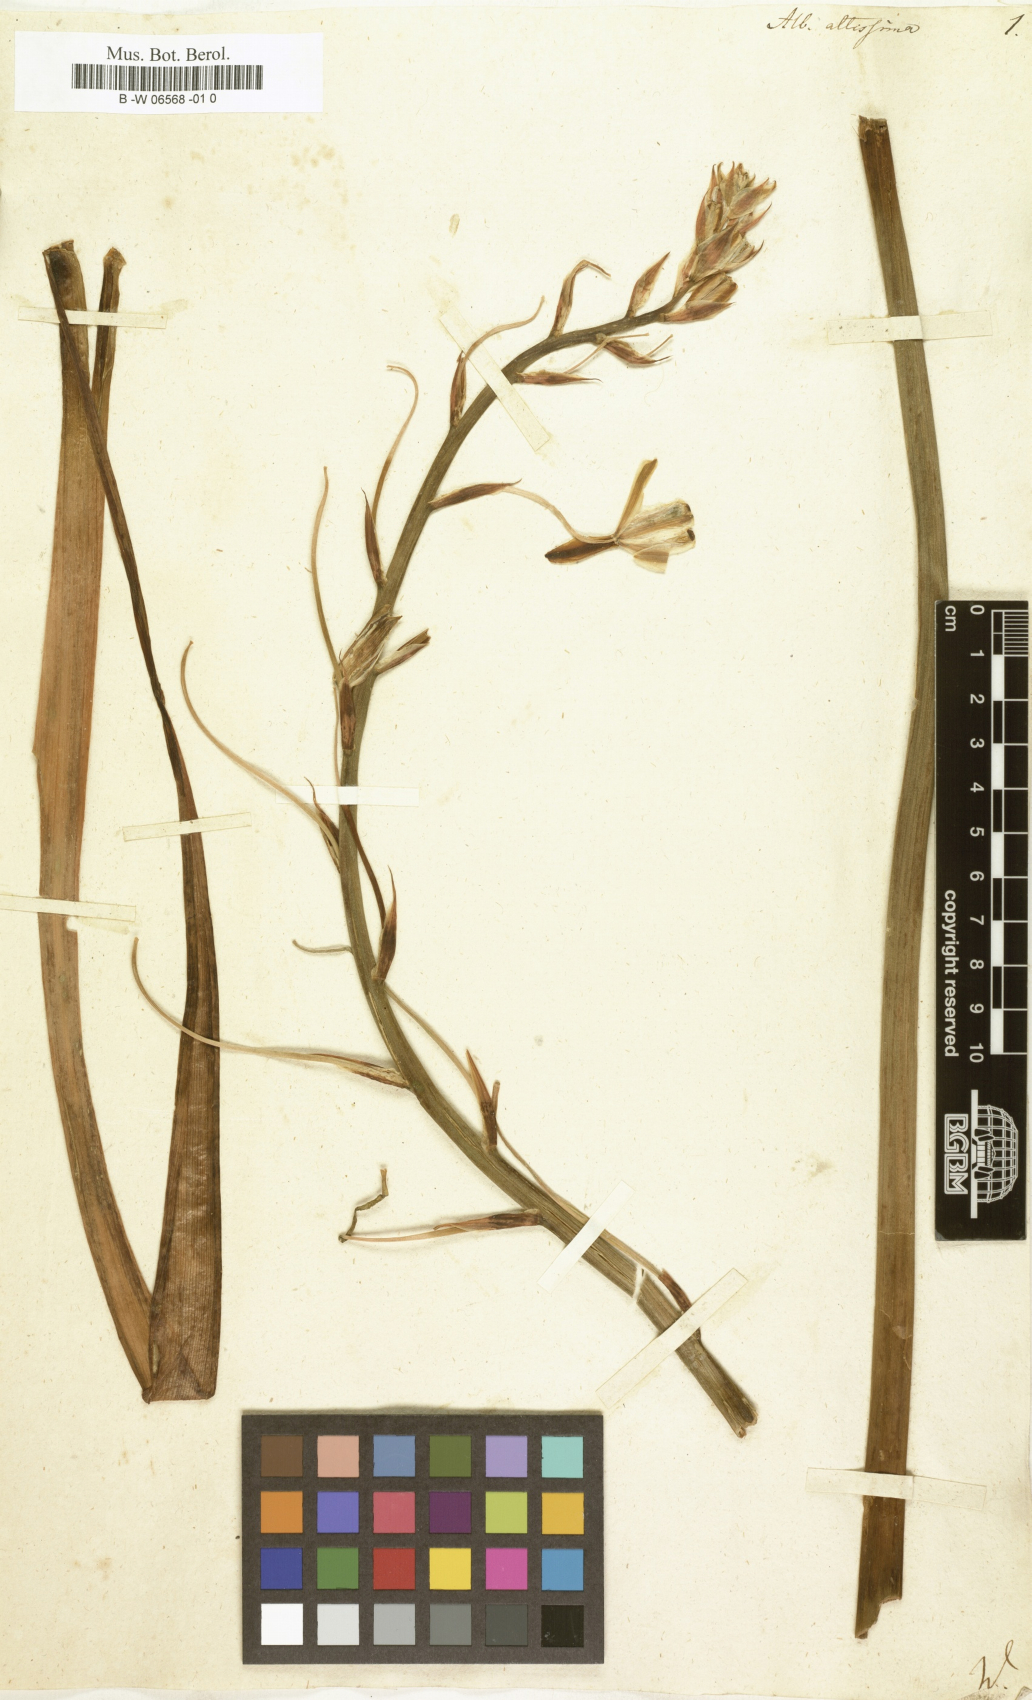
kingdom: Plantae
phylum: Tracheophyta
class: Liliopsida
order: Asparagales
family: Asparagaceae
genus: Albuca
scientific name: Albuca canadensis
